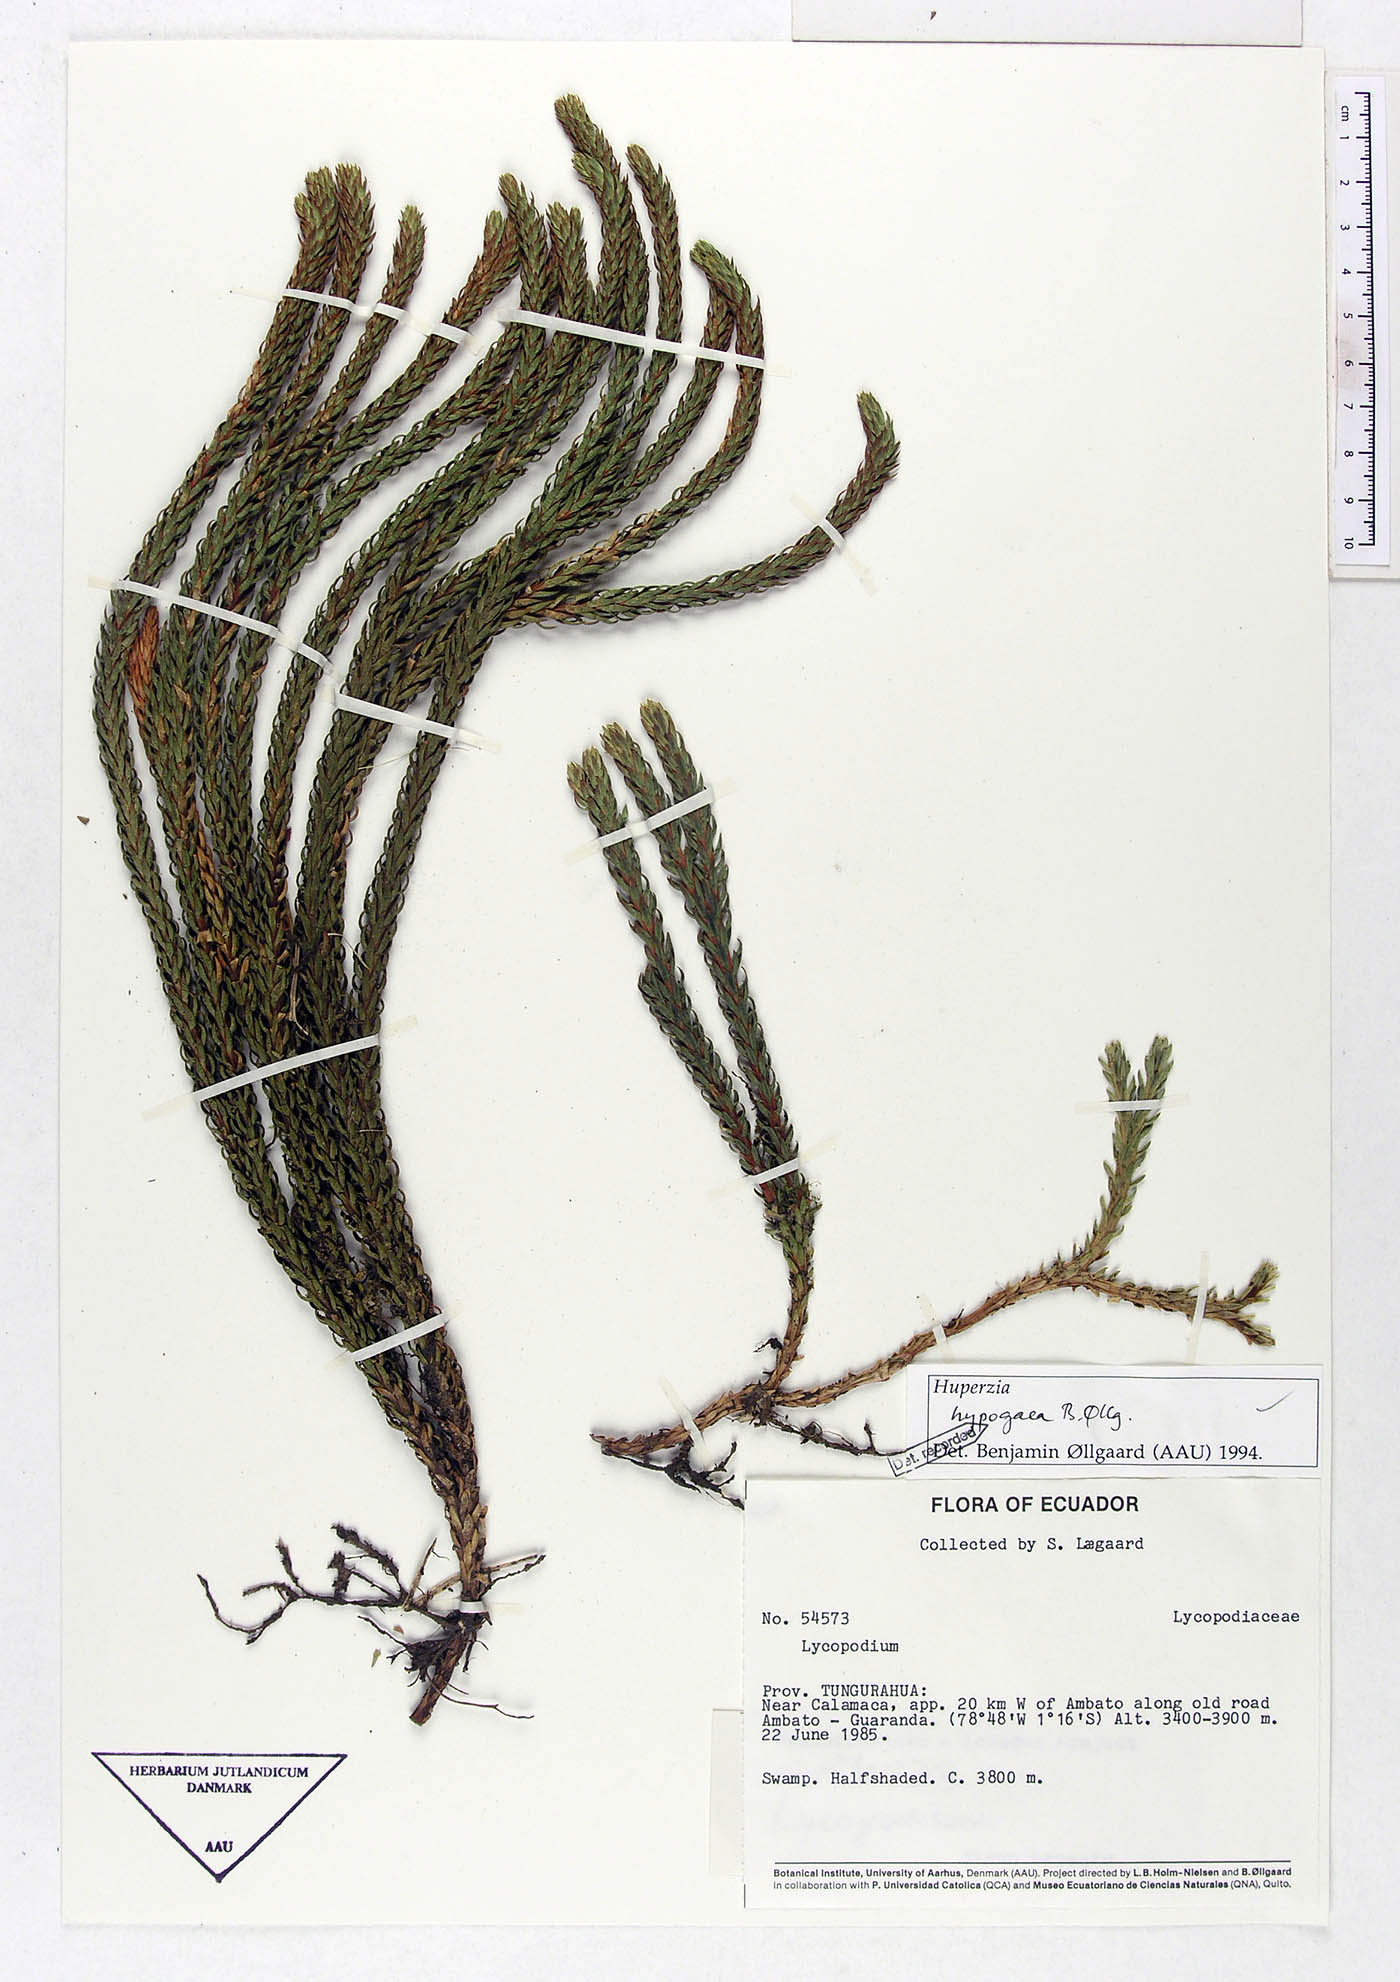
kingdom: Plantae
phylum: Tracheophyta
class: Lycopodiopsida
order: Lycopodiales
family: Lycopodiaceae
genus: Phlegmariurus
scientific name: Phlegmariurus hypogaeus
